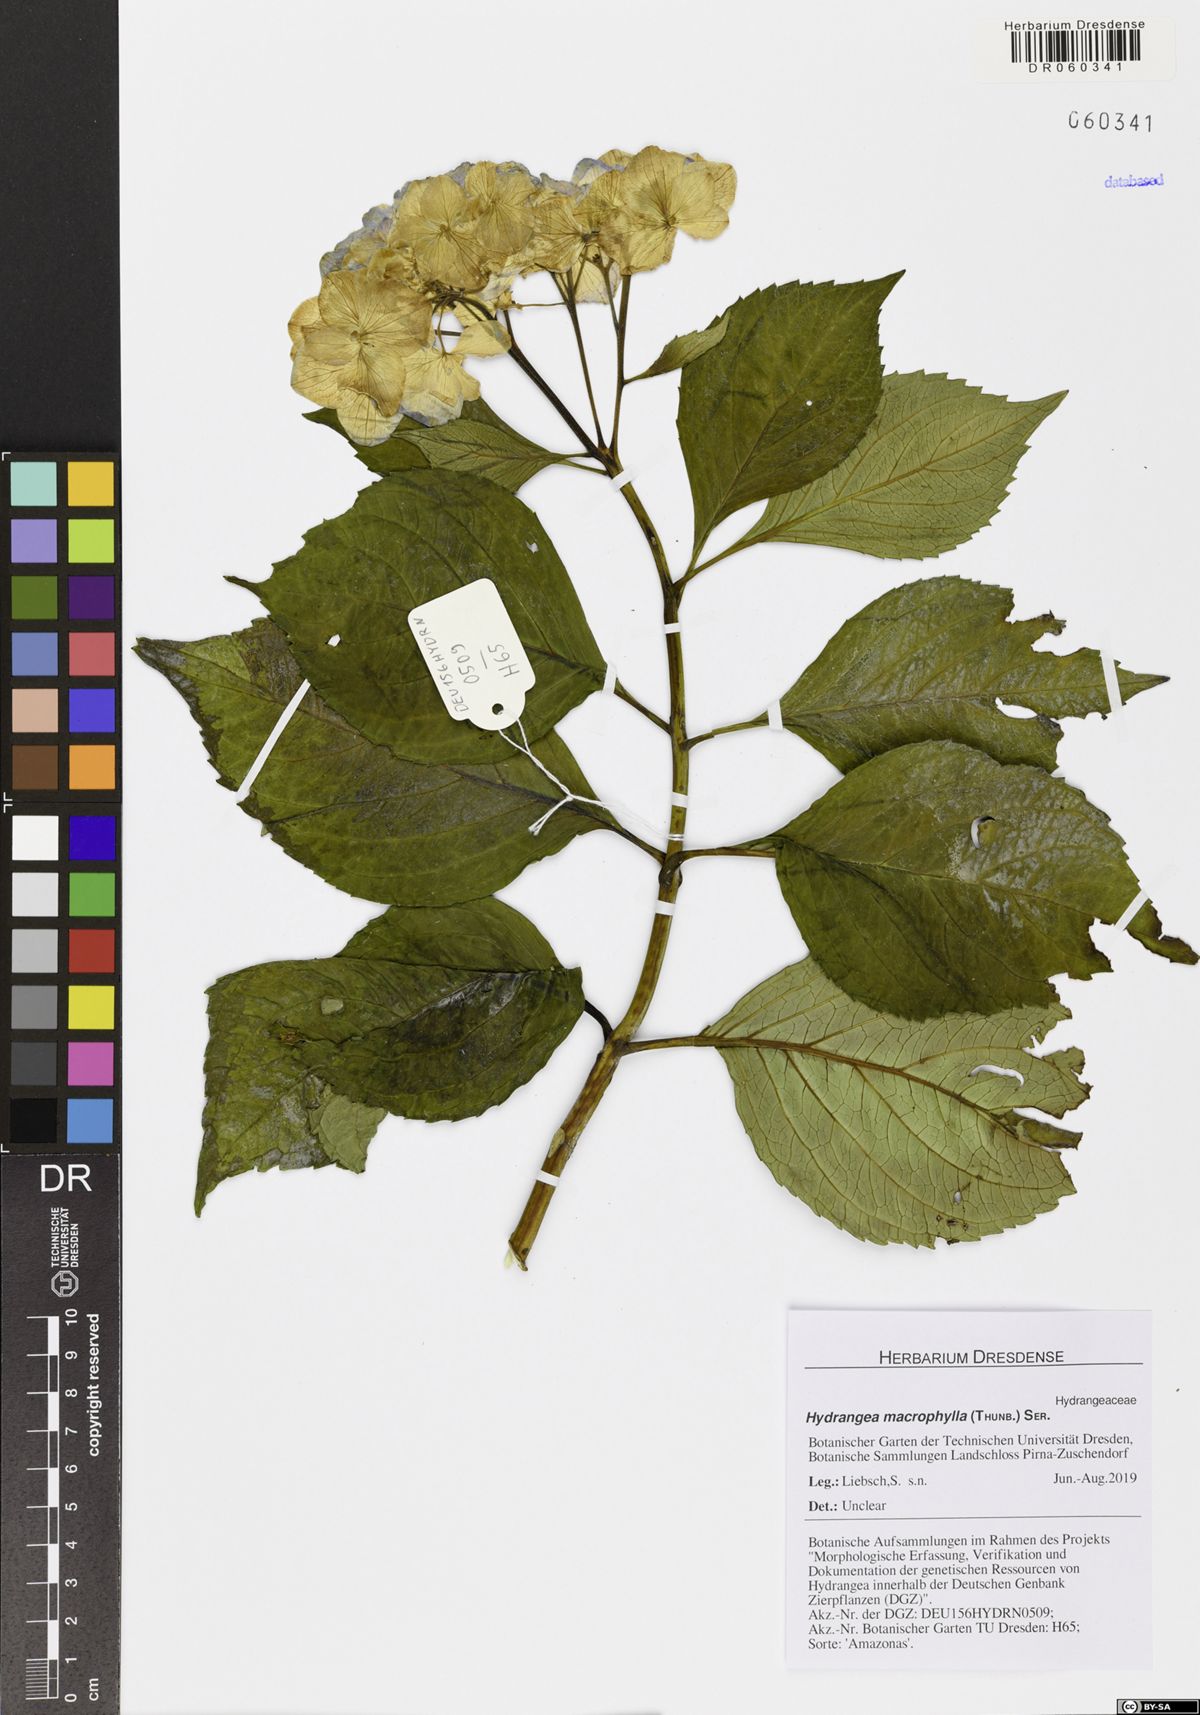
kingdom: Plantae
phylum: Tracheophyta
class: Magnoliopsida
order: Cornales
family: Hydrangeaceae
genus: Hydrangea
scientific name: Hydrangea macrophylla
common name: Hydrangea
